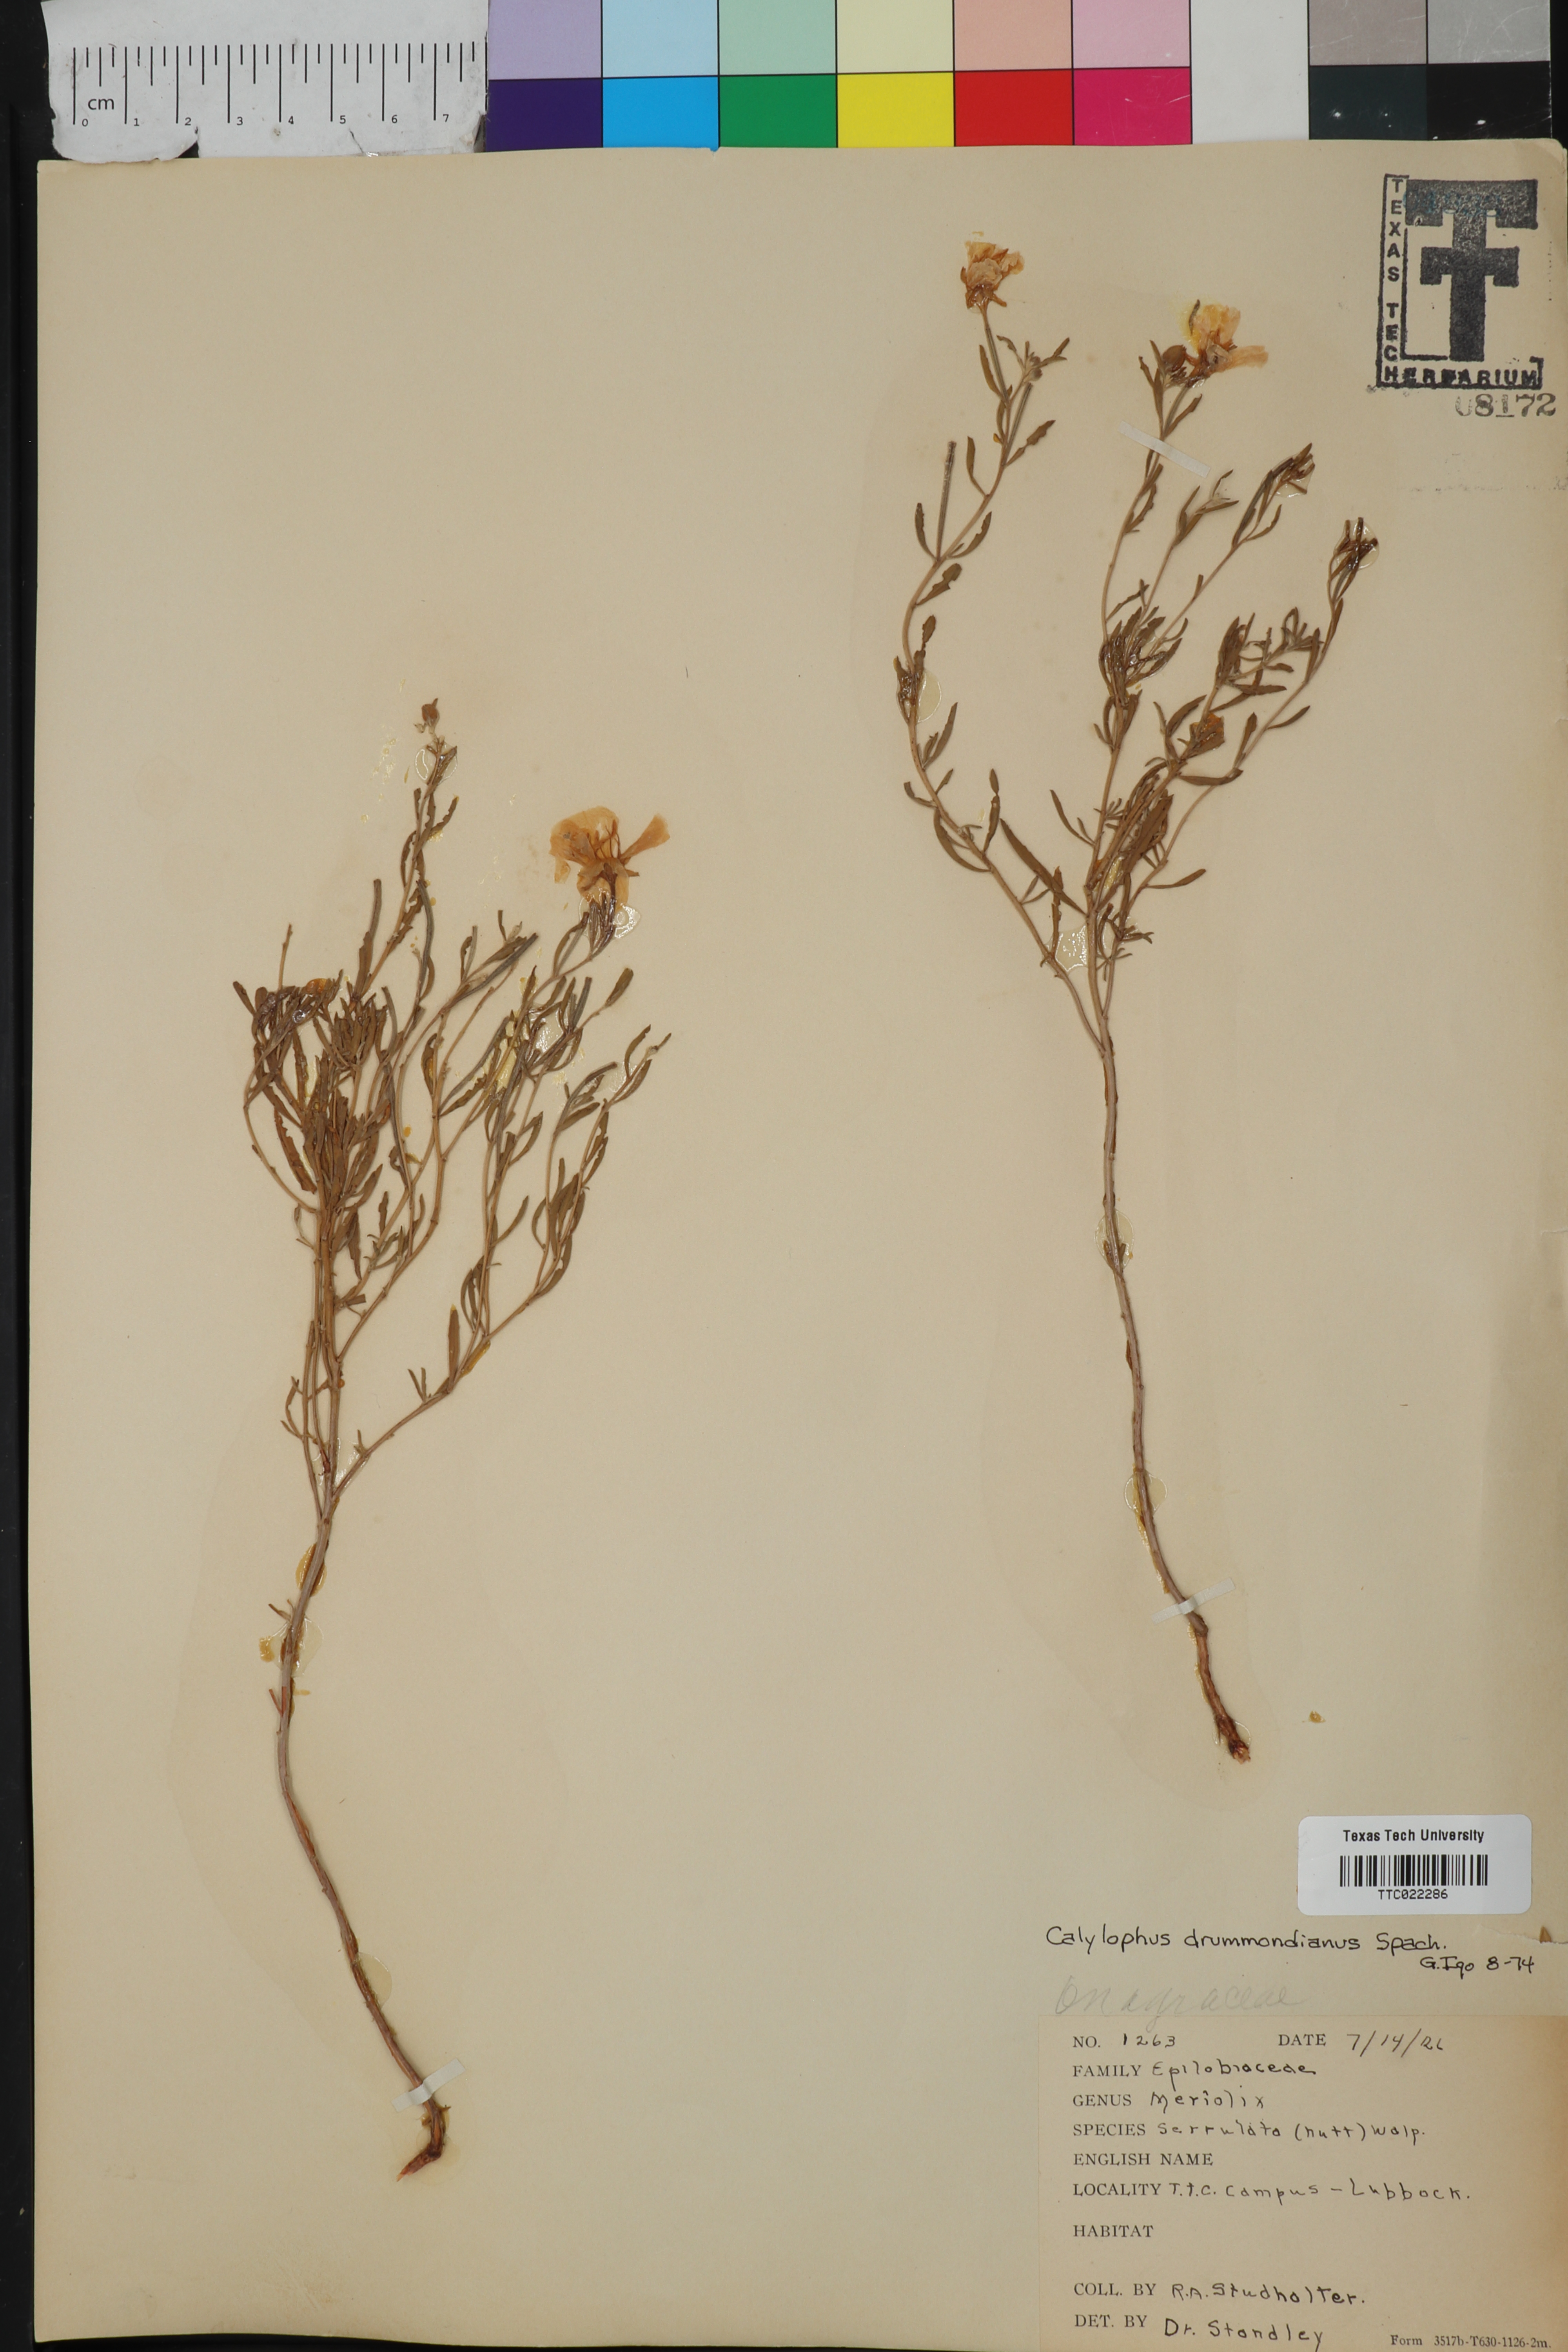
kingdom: Plantae
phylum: Tracheophyta
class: Magnoliopsida
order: Myrtales
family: Onagraceae
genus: Oenothera
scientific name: Oenothera serrulata
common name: Half-shrub calylophus
